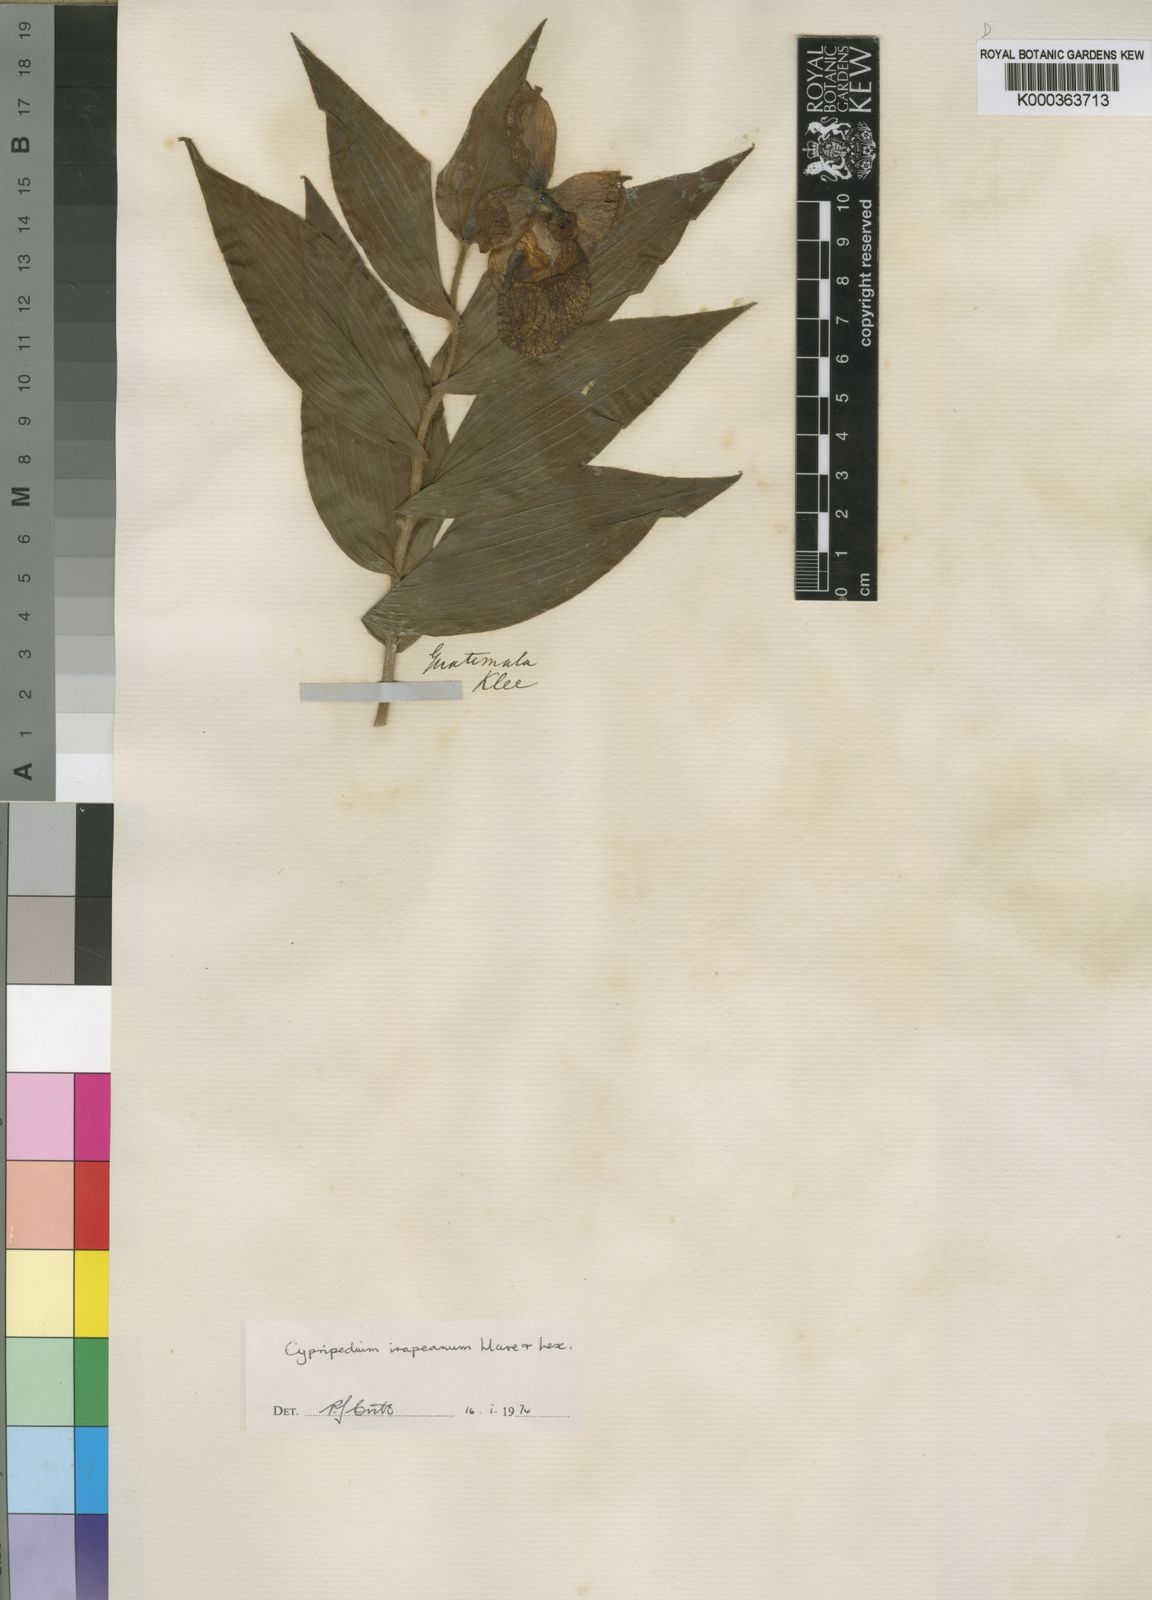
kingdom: Plantae
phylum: Tracheophyta
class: Liliopsida
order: Asparagales
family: Orchidaceae
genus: Cypripedium
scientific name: Cypripedium irapeanum
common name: Irapeao cypripedium
